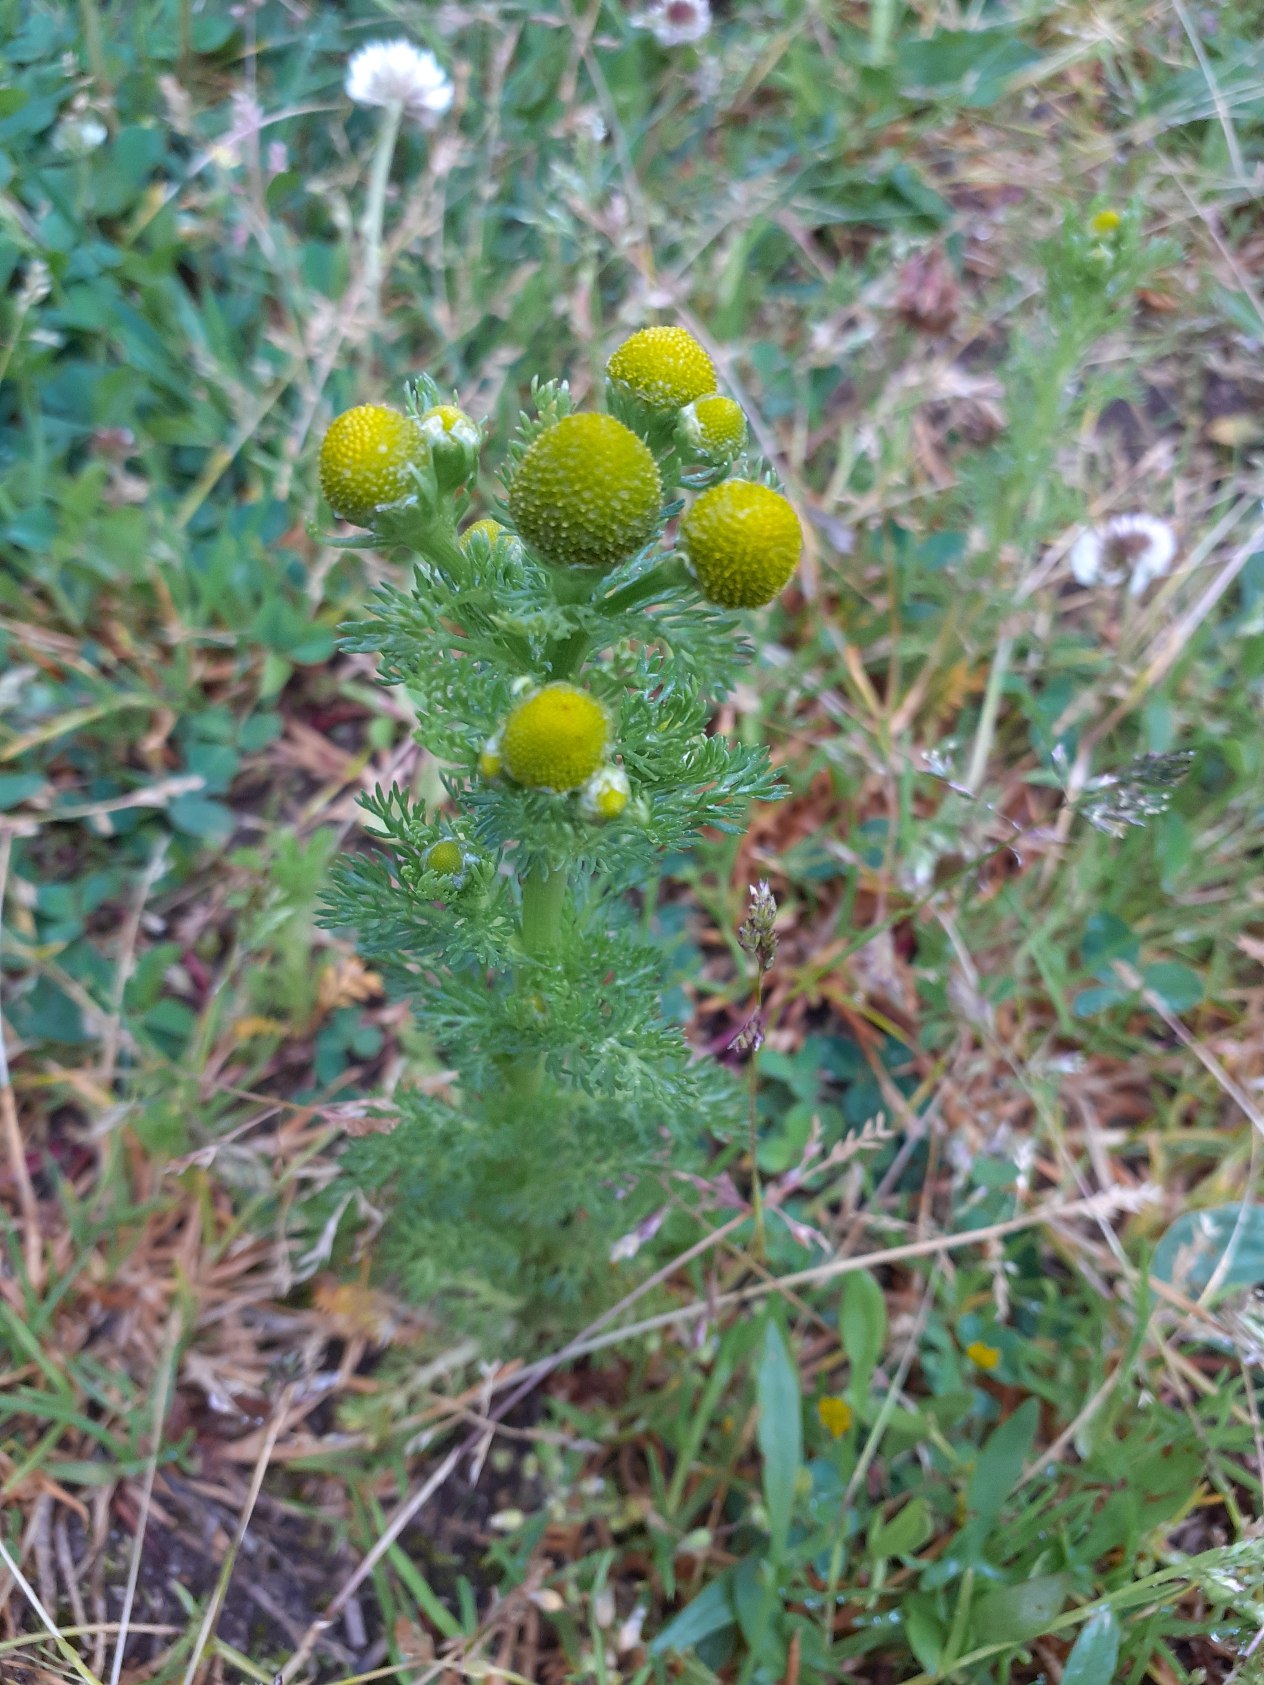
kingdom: Plantae
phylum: Tracheophyta
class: Magnoliopsida
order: Asterales
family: Asteraceae
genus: Matricaria
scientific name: Matricaria discoidea
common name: Skive-kamille
